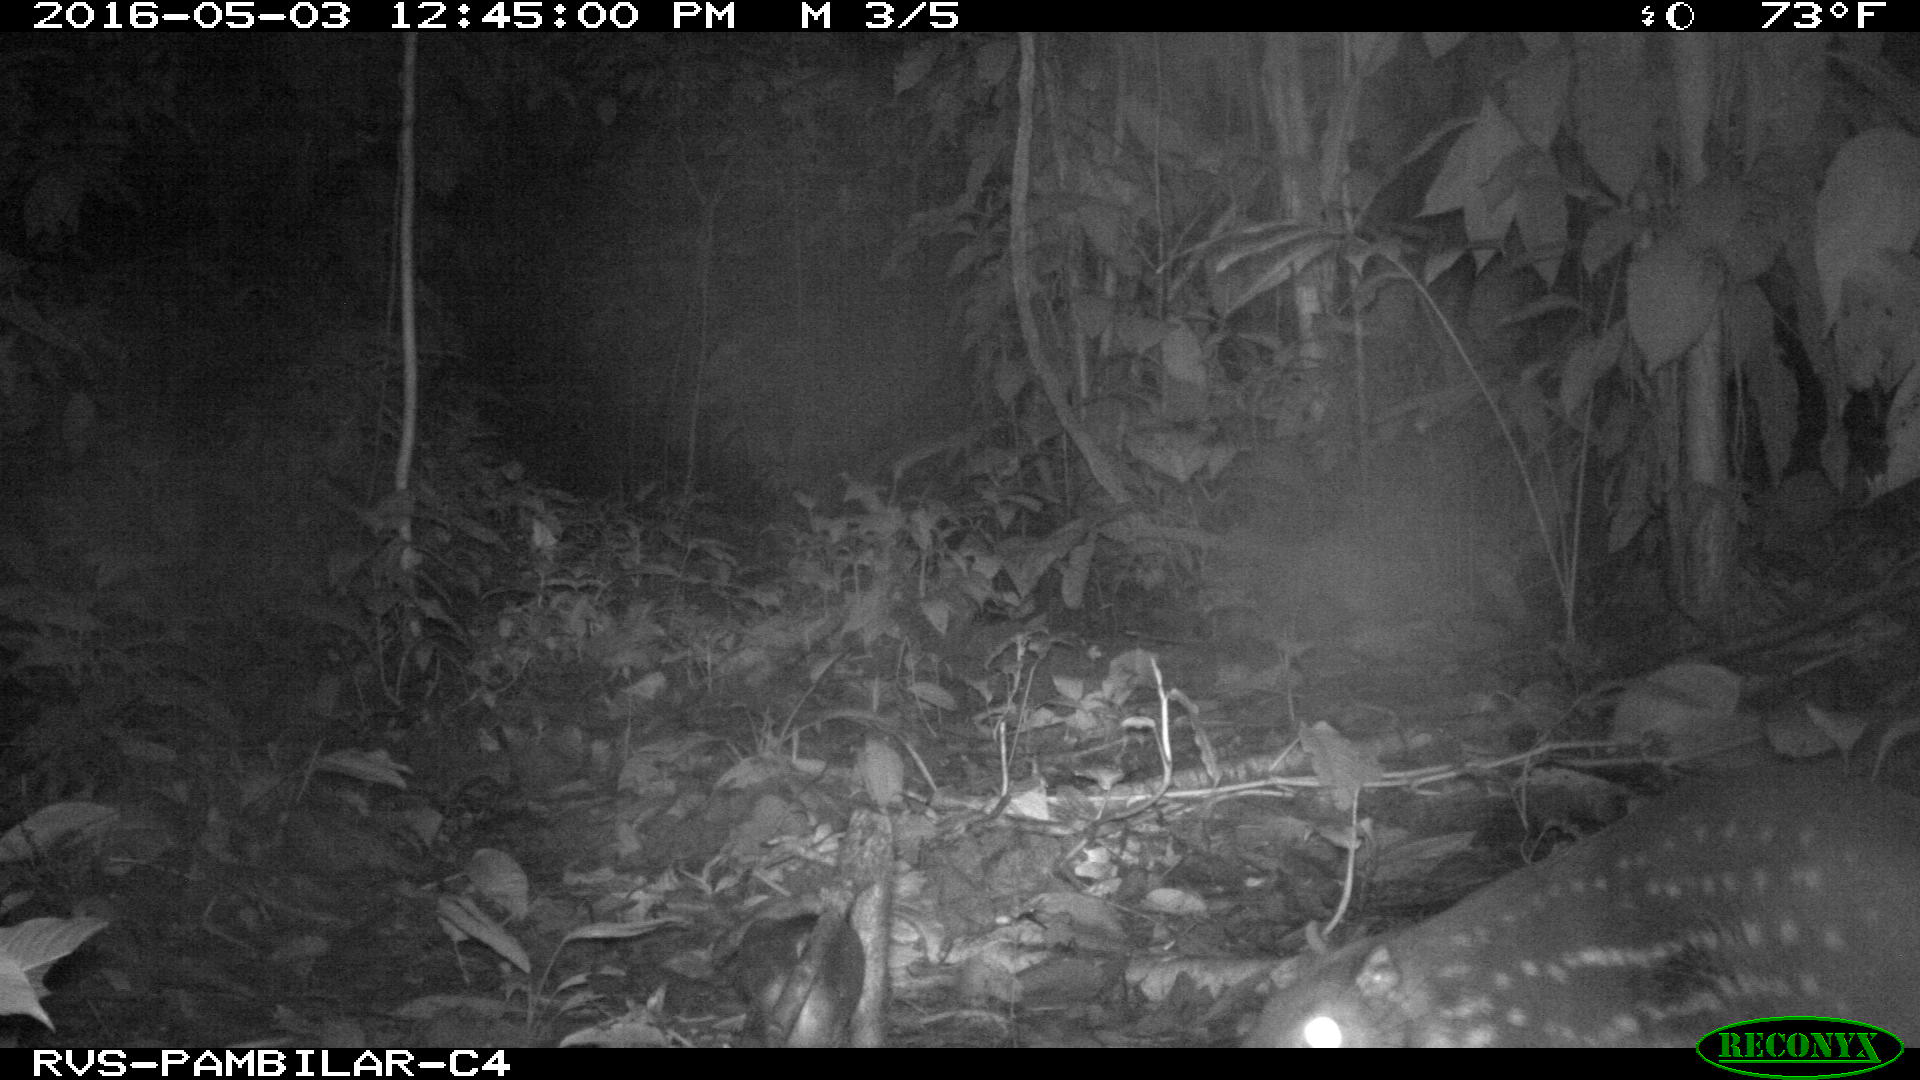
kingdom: Animalia
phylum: Chordata
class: Mammalia
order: Rodentia
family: Cuniculidae
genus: Cuniculus
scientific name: Cuniculus paca
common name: Lowland paca
